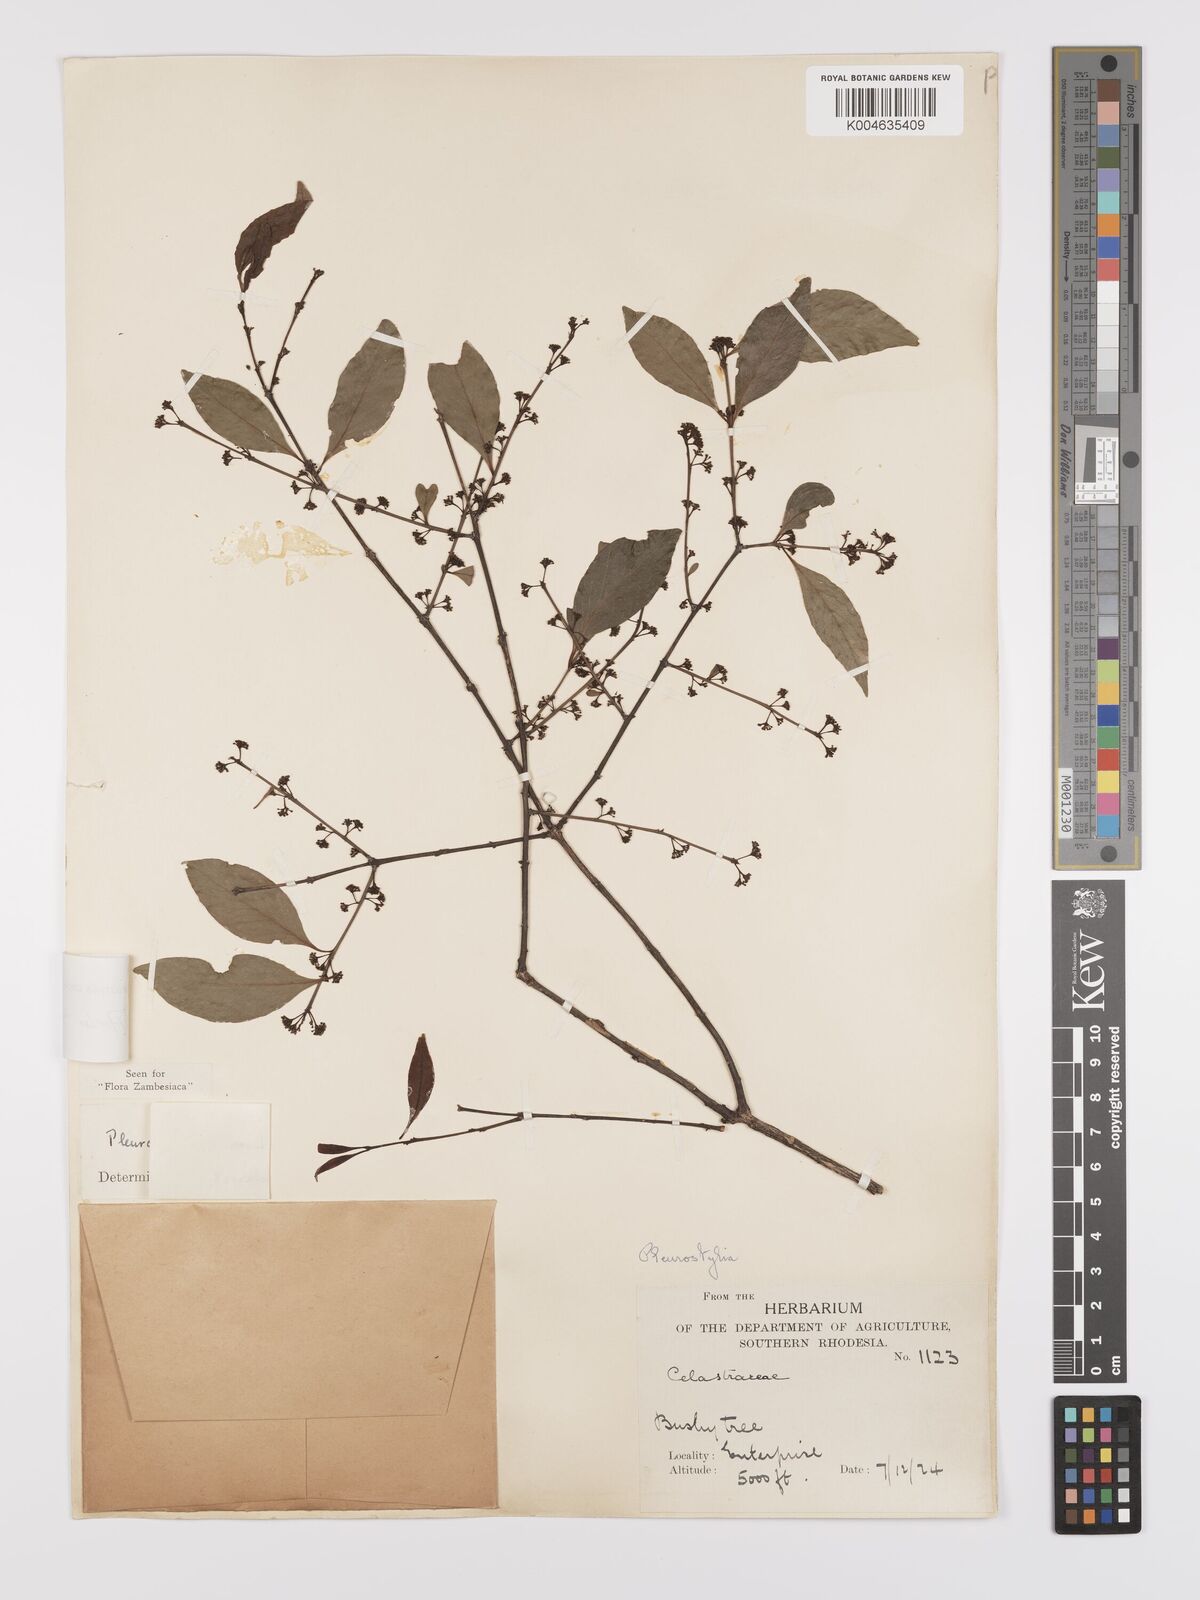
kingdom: Plantae
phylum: Tracheophyta
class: Magnoliopsida
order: Celastrales
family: Celastraceae
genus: Pleurostylia
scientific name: Pleurostylia africana
